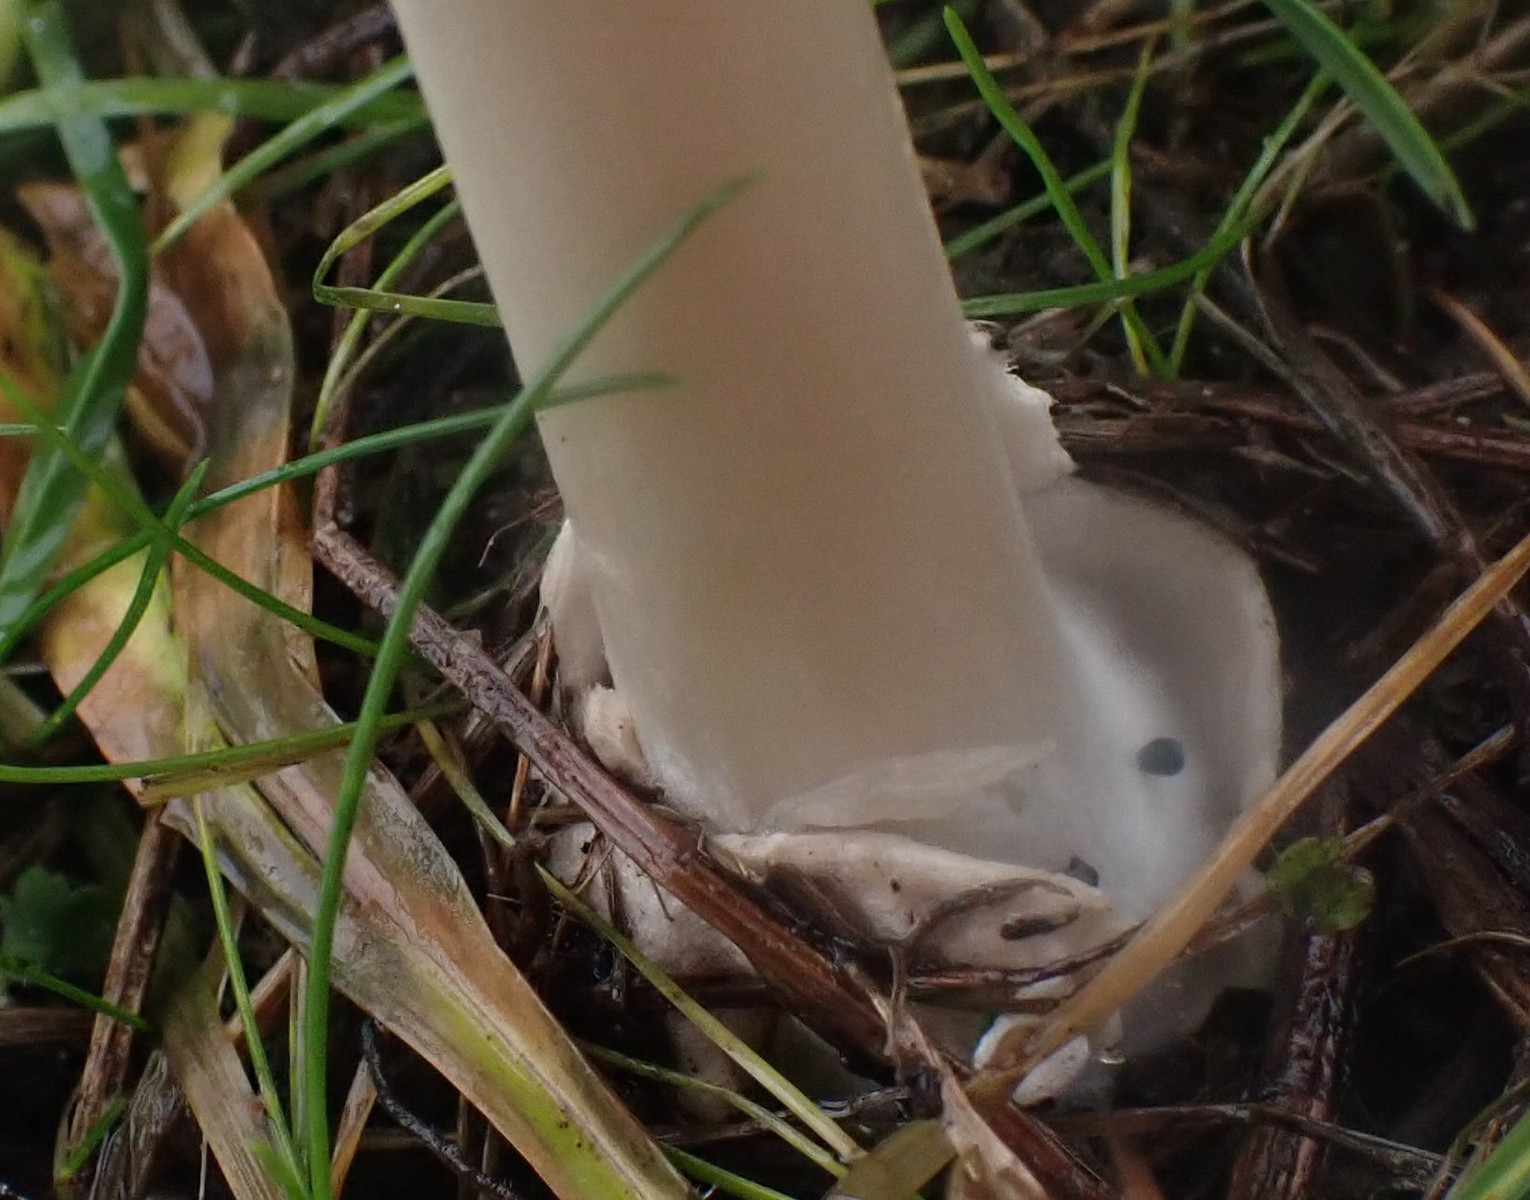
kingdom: Fungi
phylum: Basidiomycota
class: Agaricomycetes
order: Agaricales
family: Pluteaceae
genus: Volvopluteus
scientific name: Volvopluteus gloiocephalus
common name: høj posesvamp
